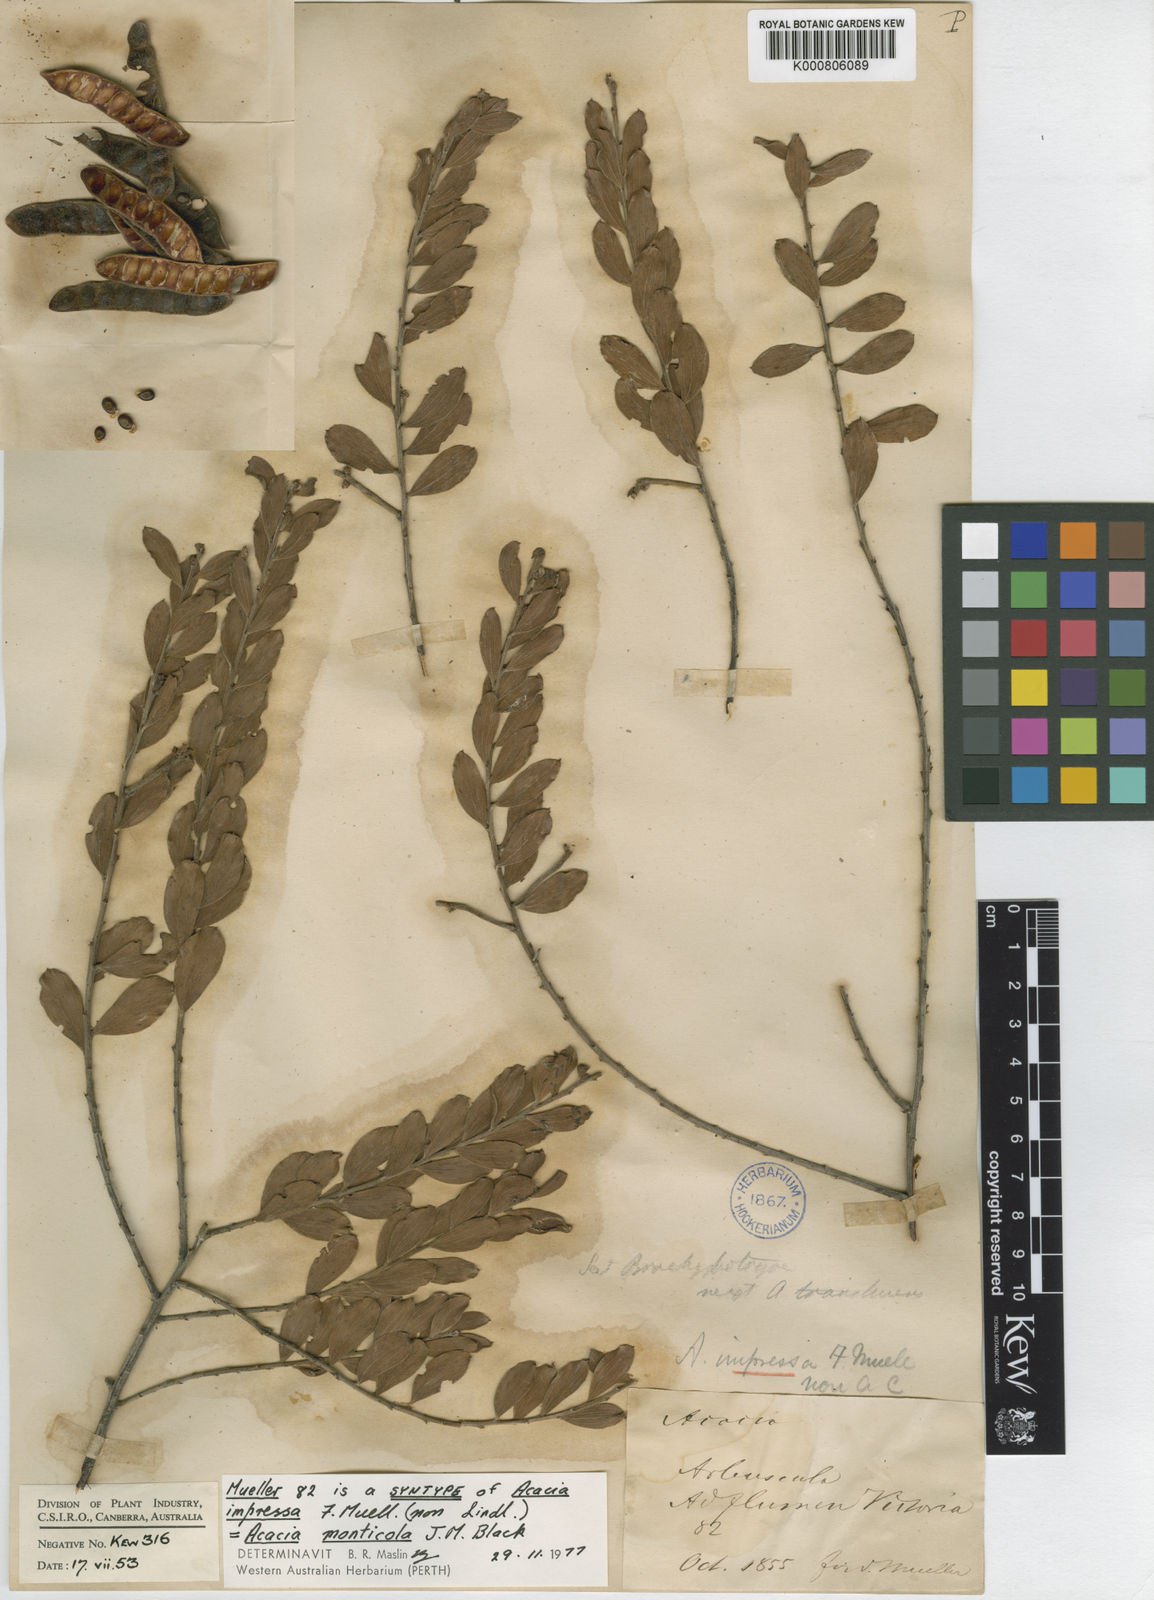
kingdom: Plantae
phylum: Tracheophyta
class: Magnoliopsida
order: Fabales
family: Fabaceae
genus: Acacia
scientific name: Acacia monticola
